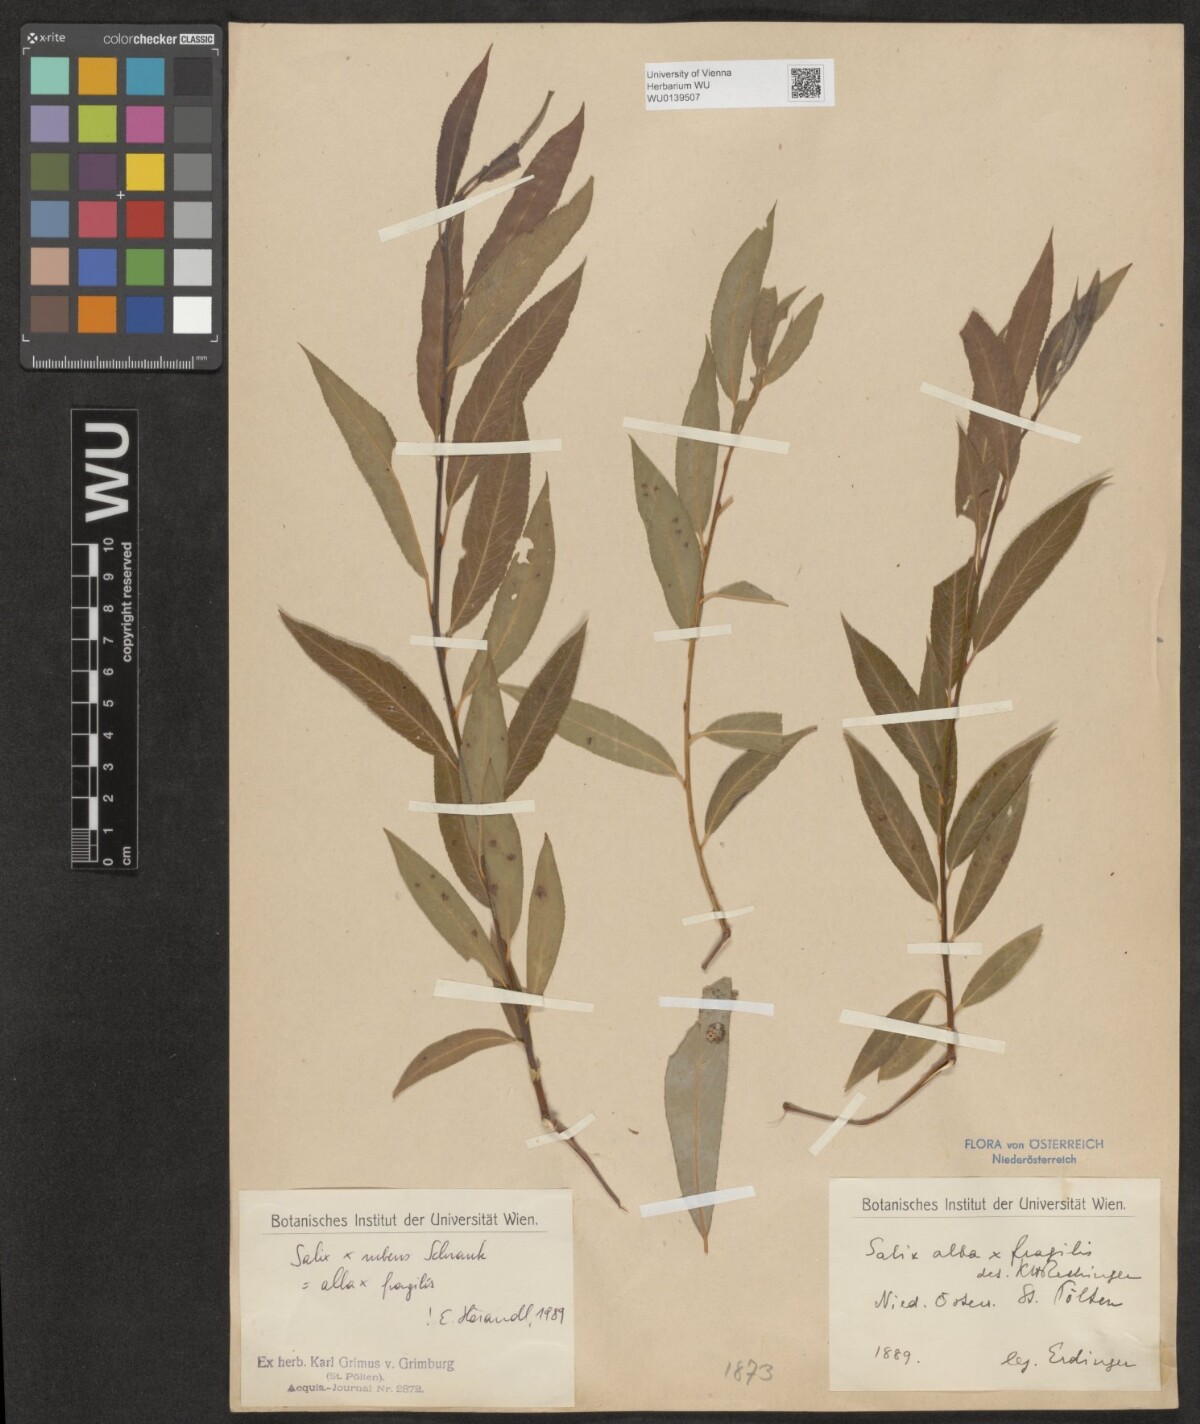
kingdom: Plantae
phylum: Tracheophyta
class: Magnoliopsida
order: Malpighiales
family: Salicaceae
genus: Salix
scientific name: Salix rubens
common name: Hybrid crack willow
